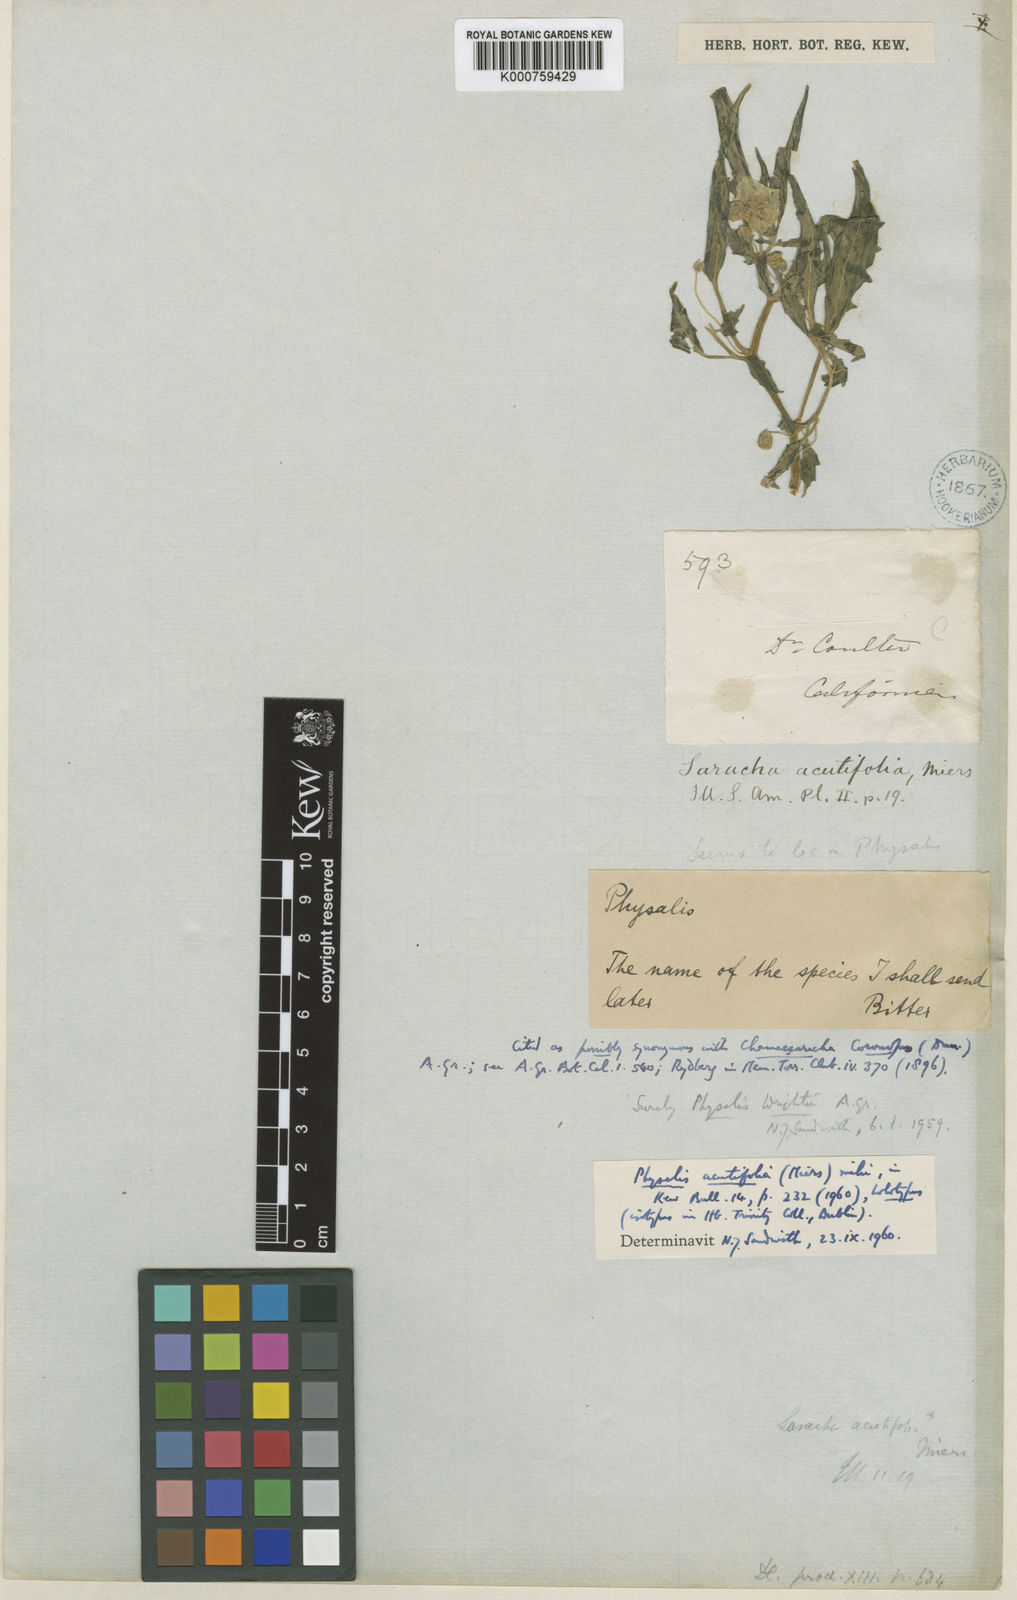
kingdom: Plantae
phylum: Tracheophyta
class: Magnoliopsida
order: Solanales
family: Solanaceae
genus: Physalis
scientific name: Physalis acutifolia
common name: Wright's ground-cherry
